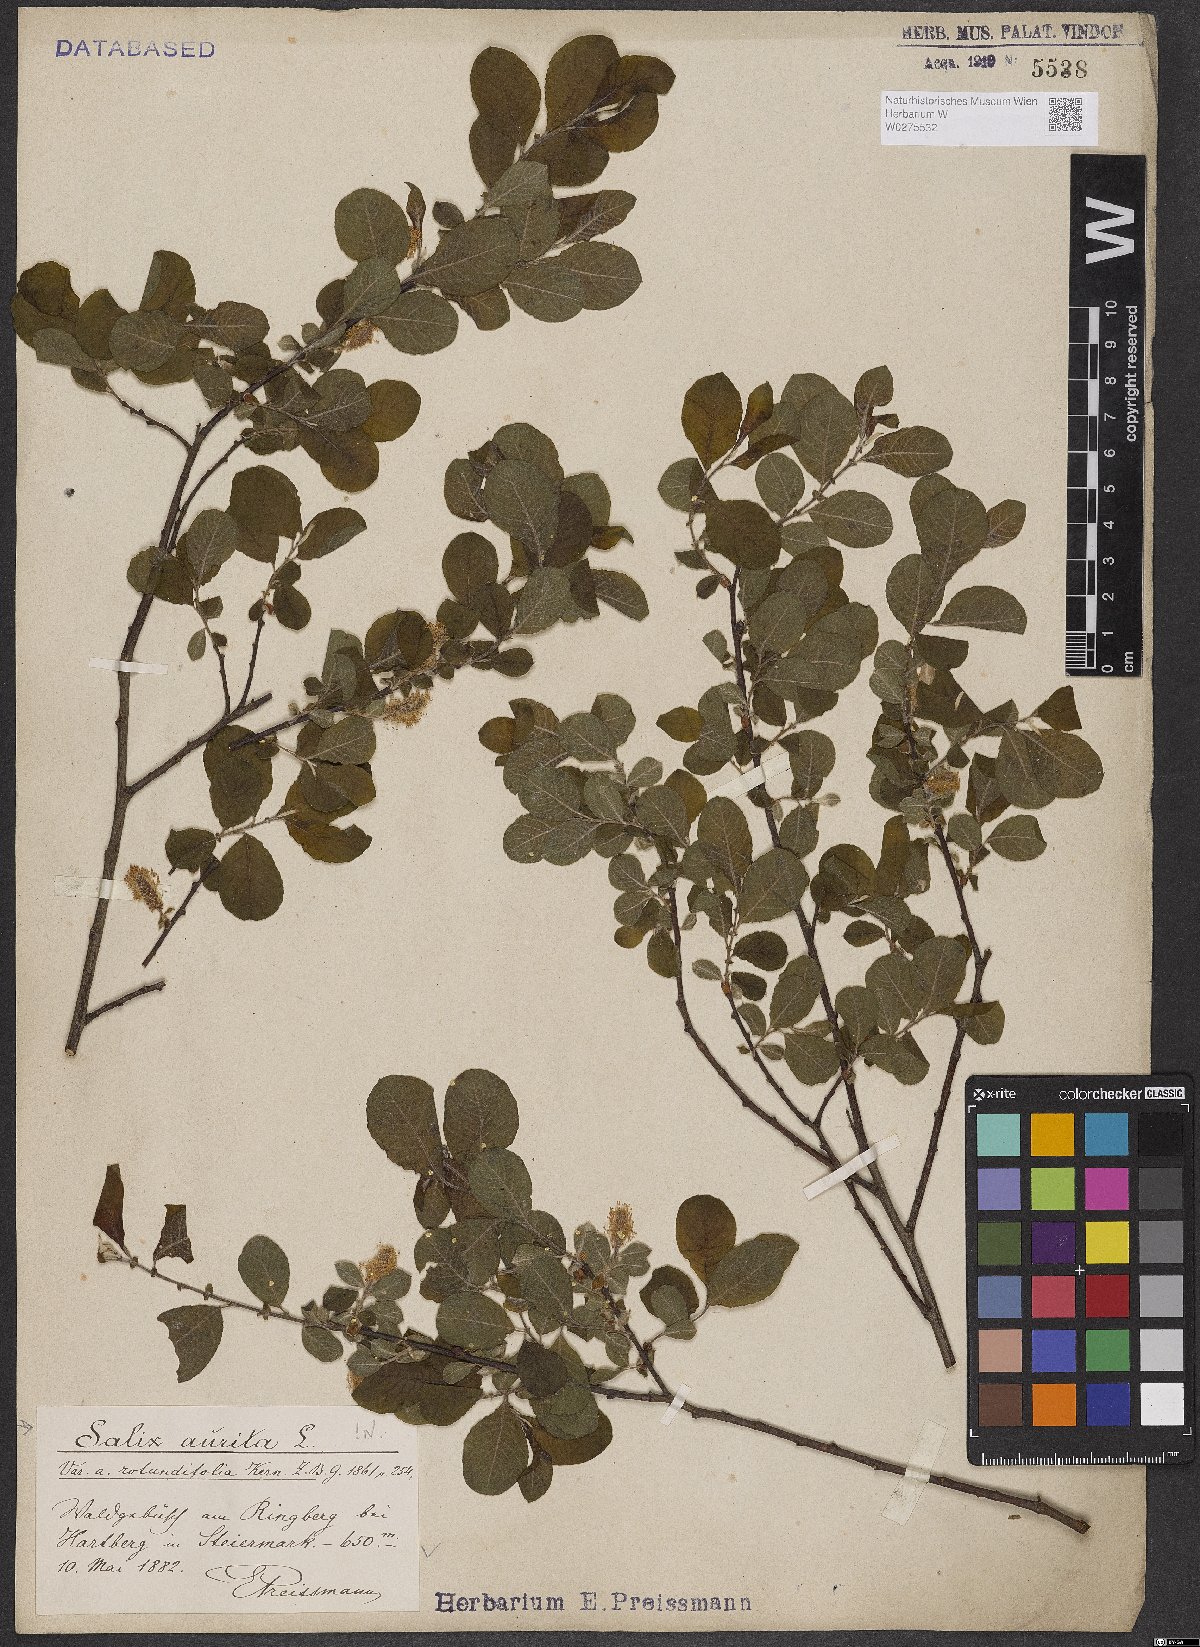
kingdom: Plantae
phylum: Tracheophyta
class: Magnoliopsida
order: Malpighiales
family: Salicaceae
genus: Salix
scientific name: Salix aurita
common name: Eared willow
